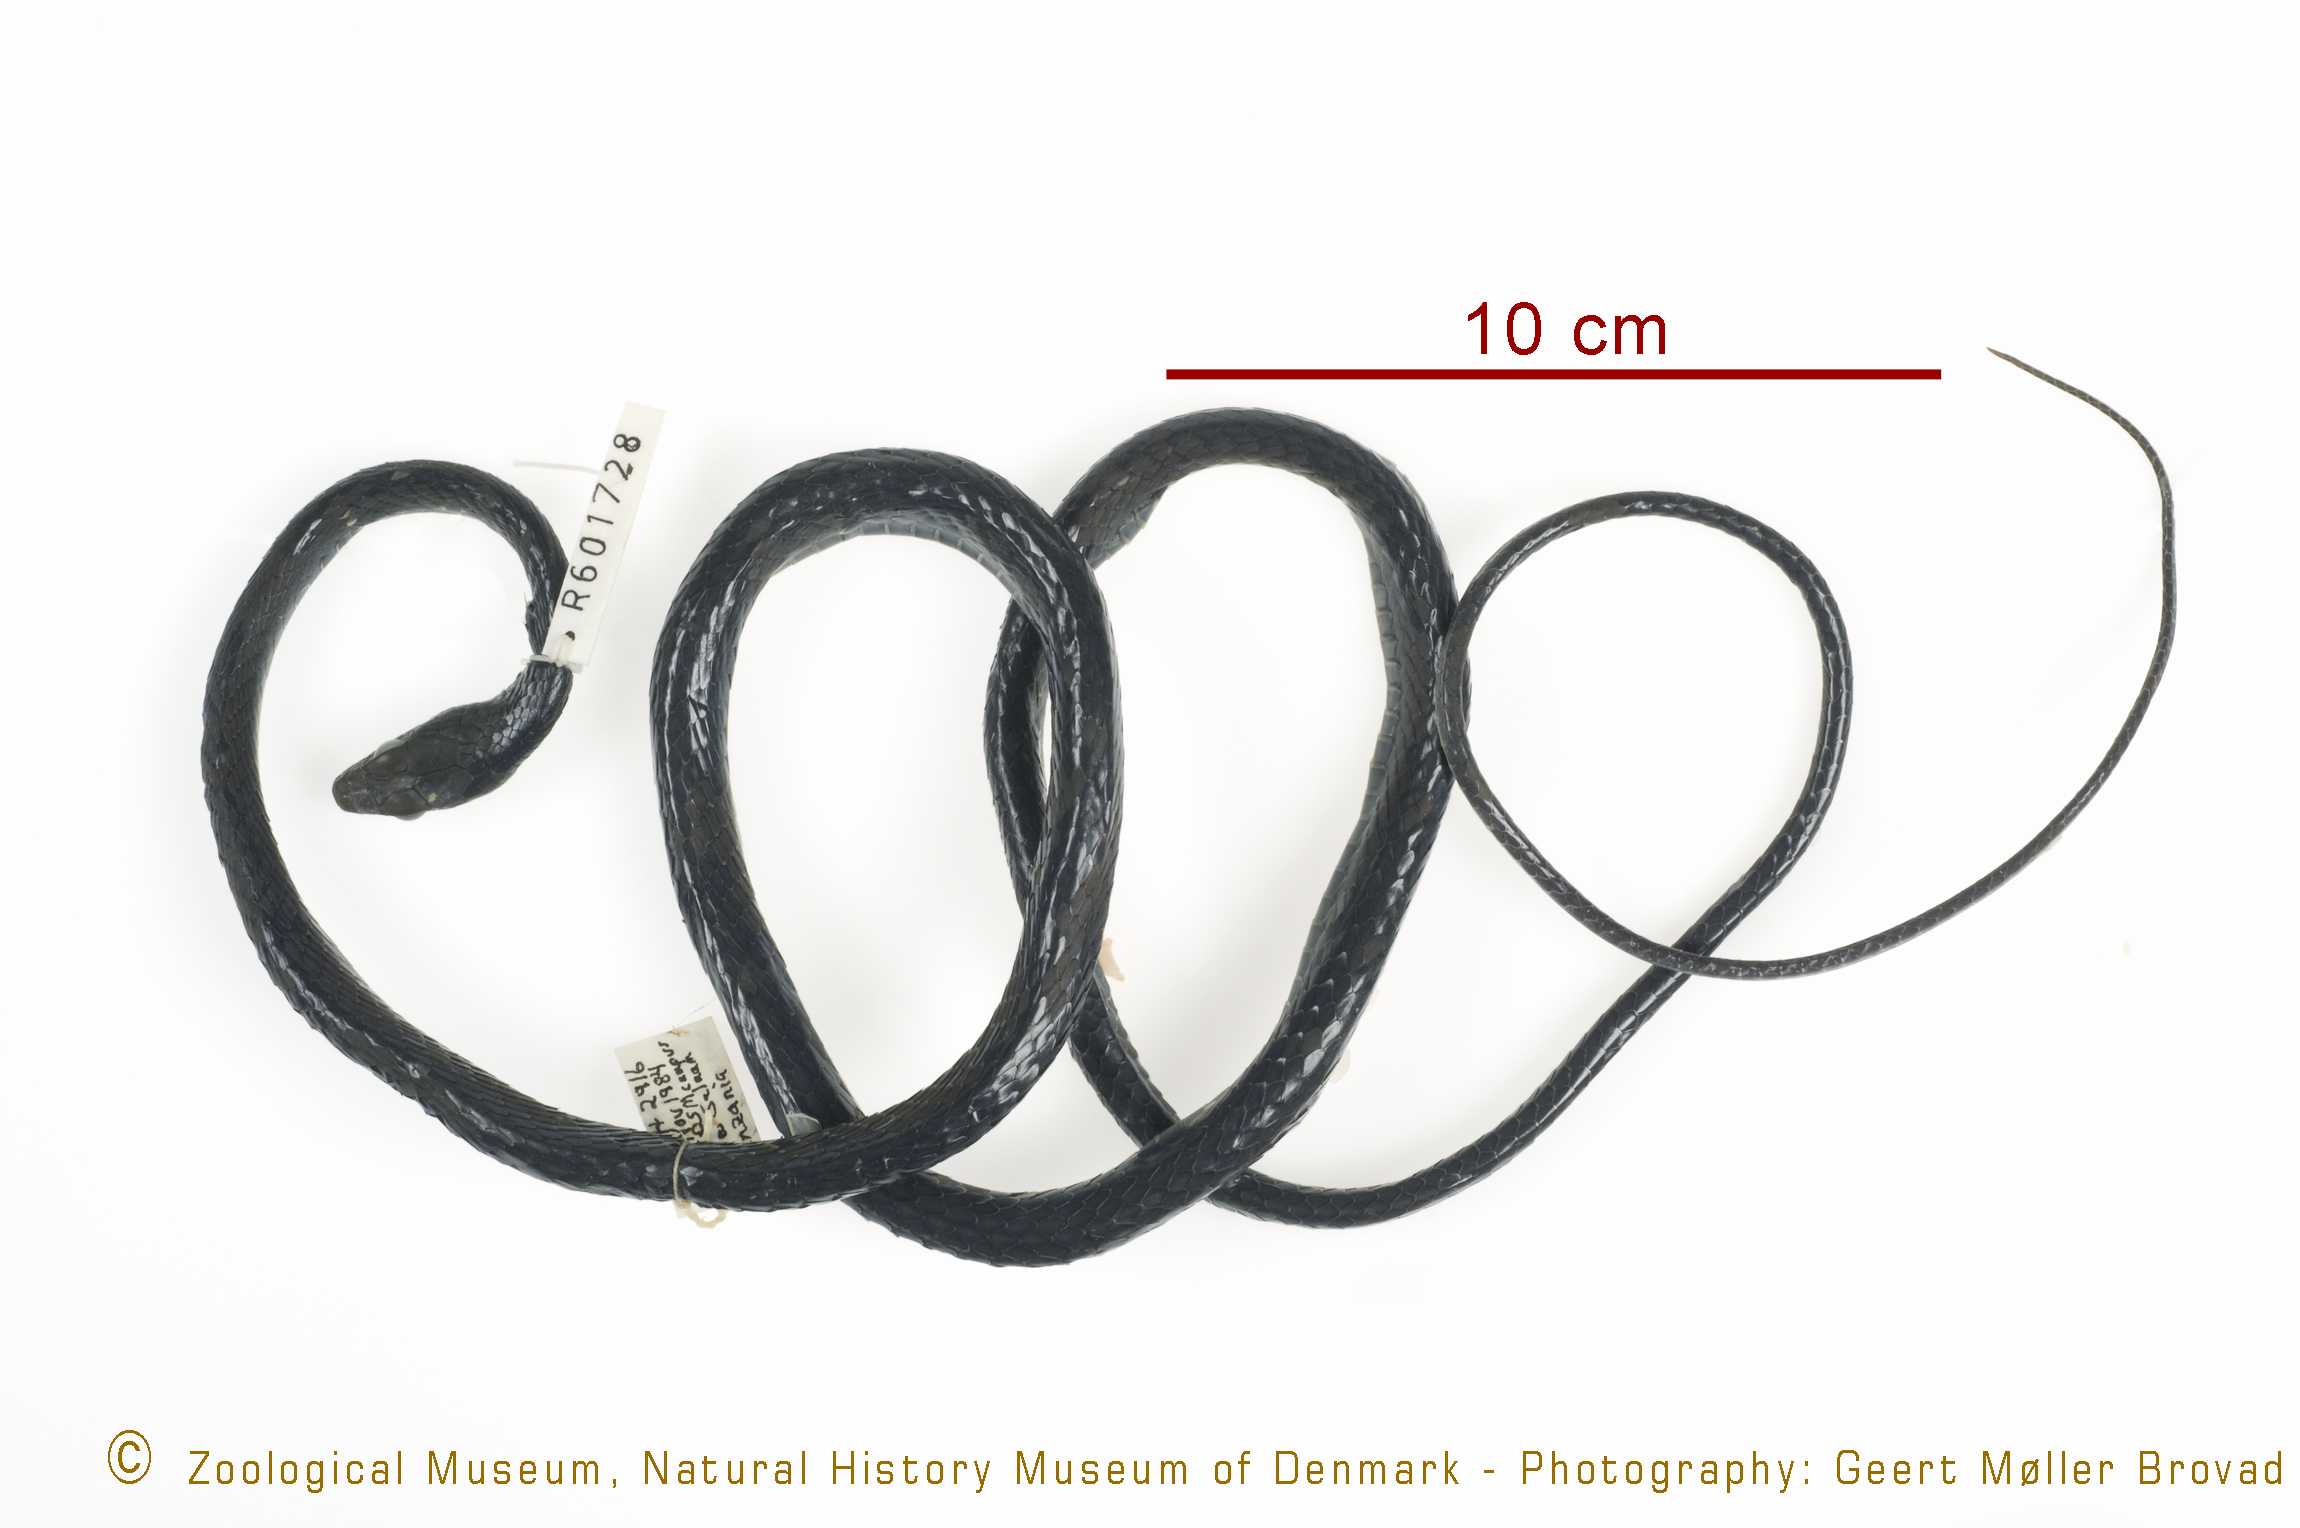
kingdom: Animalia
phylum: Chordata
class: Squamata
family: Colubridae
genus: Philothamnus
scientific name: Philothamnus semivariegatus
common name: Spotted bush snake
